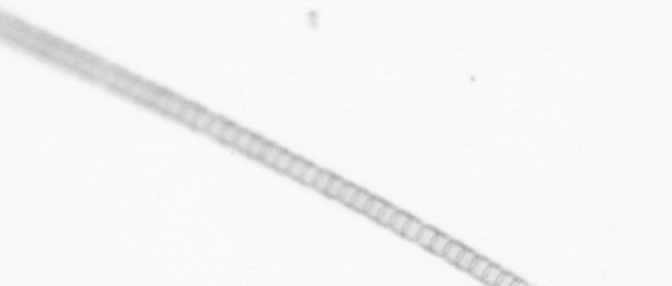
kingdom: Chromista
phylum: Ochrophyta
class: Bacillariophyceae
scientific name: Bacillariophyceae
